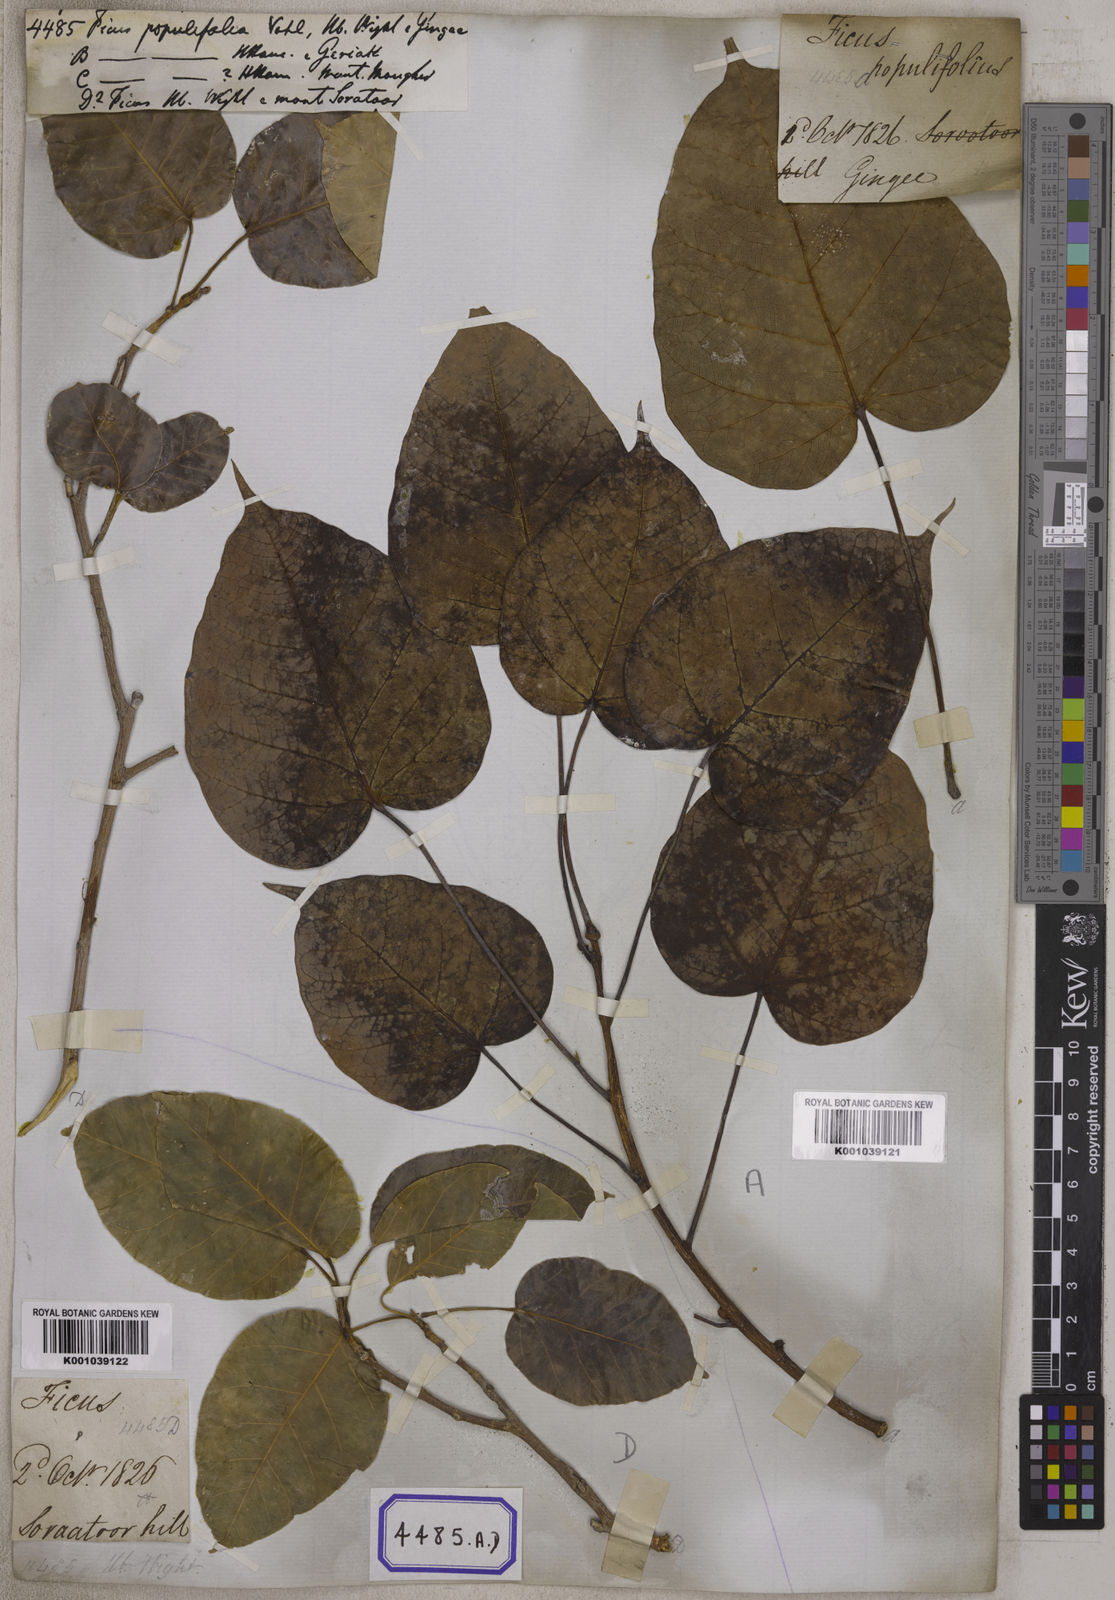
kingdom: Plantae
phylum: Tracheophyta
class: Magnoliopsida
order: Rosales
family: Moraceae
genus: Ficus
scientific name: Ficus populifolia
